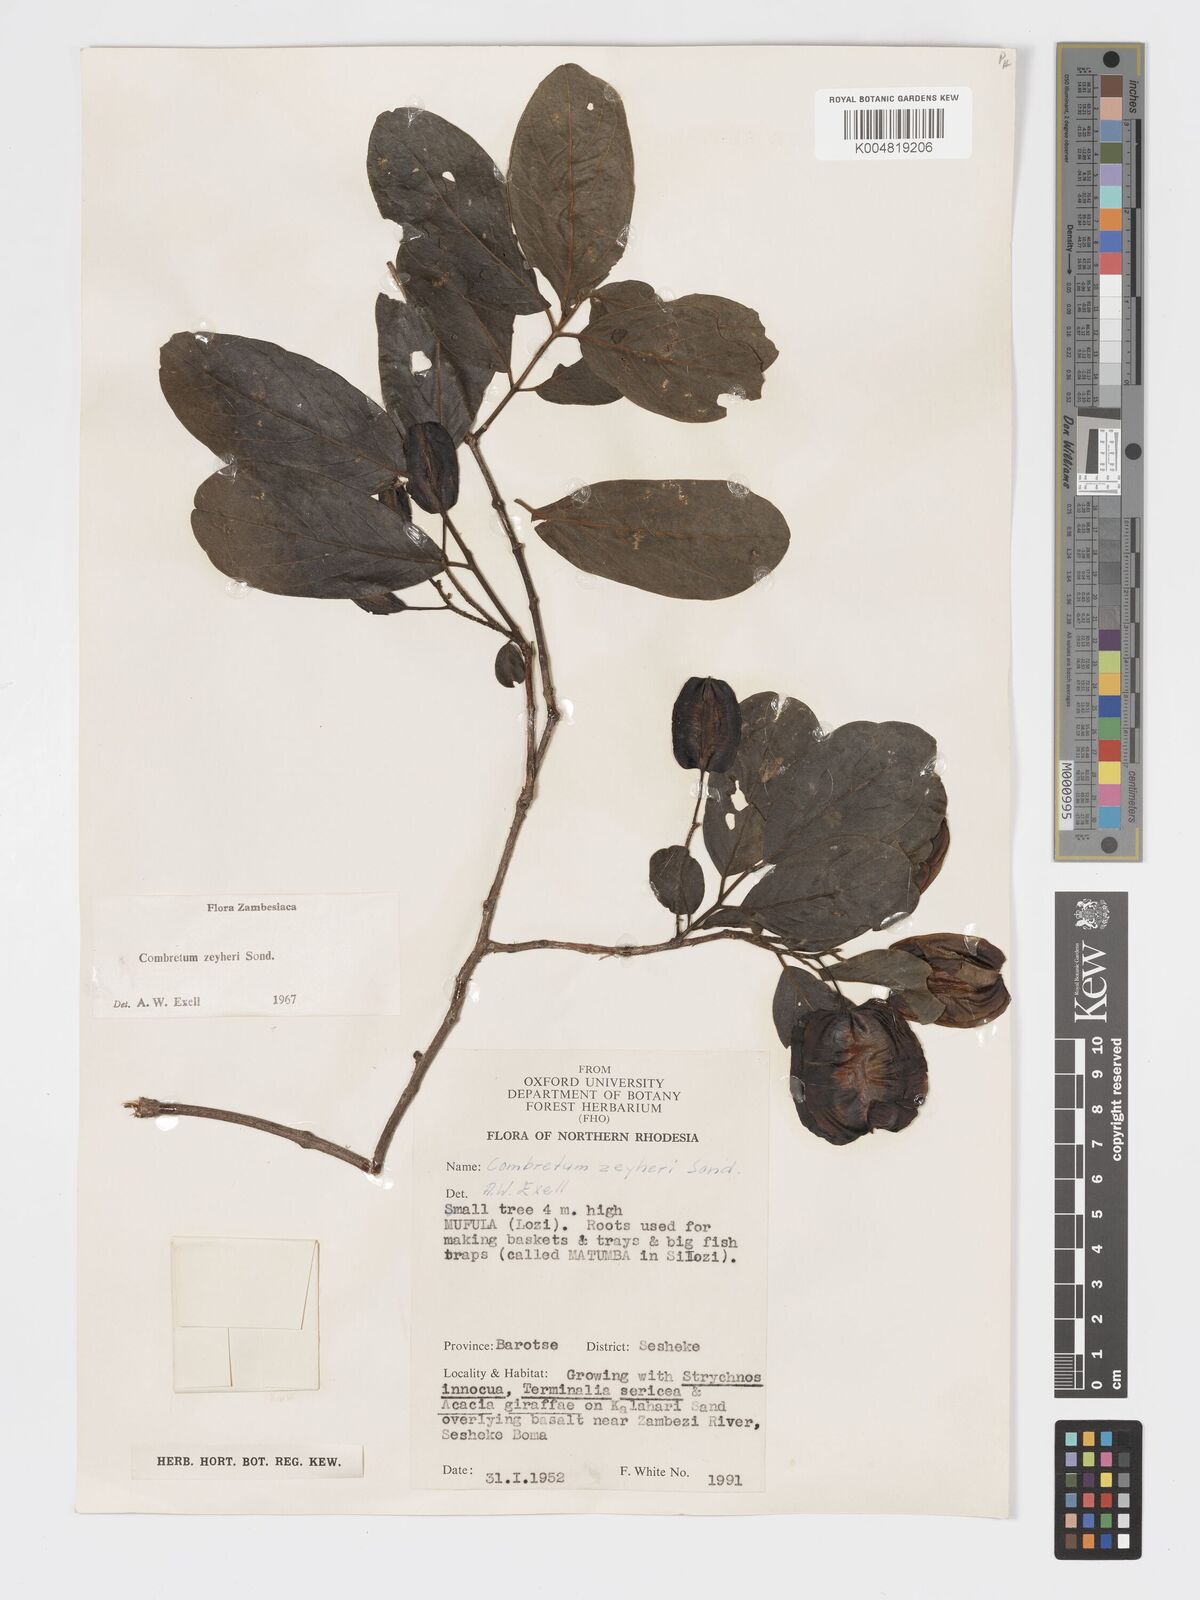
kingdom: Plantae
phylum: Tracheophyta
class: Magnoliopsida
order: Myrtales
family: Combretaceae
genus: Combretum
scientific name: Combretum zeyheri
